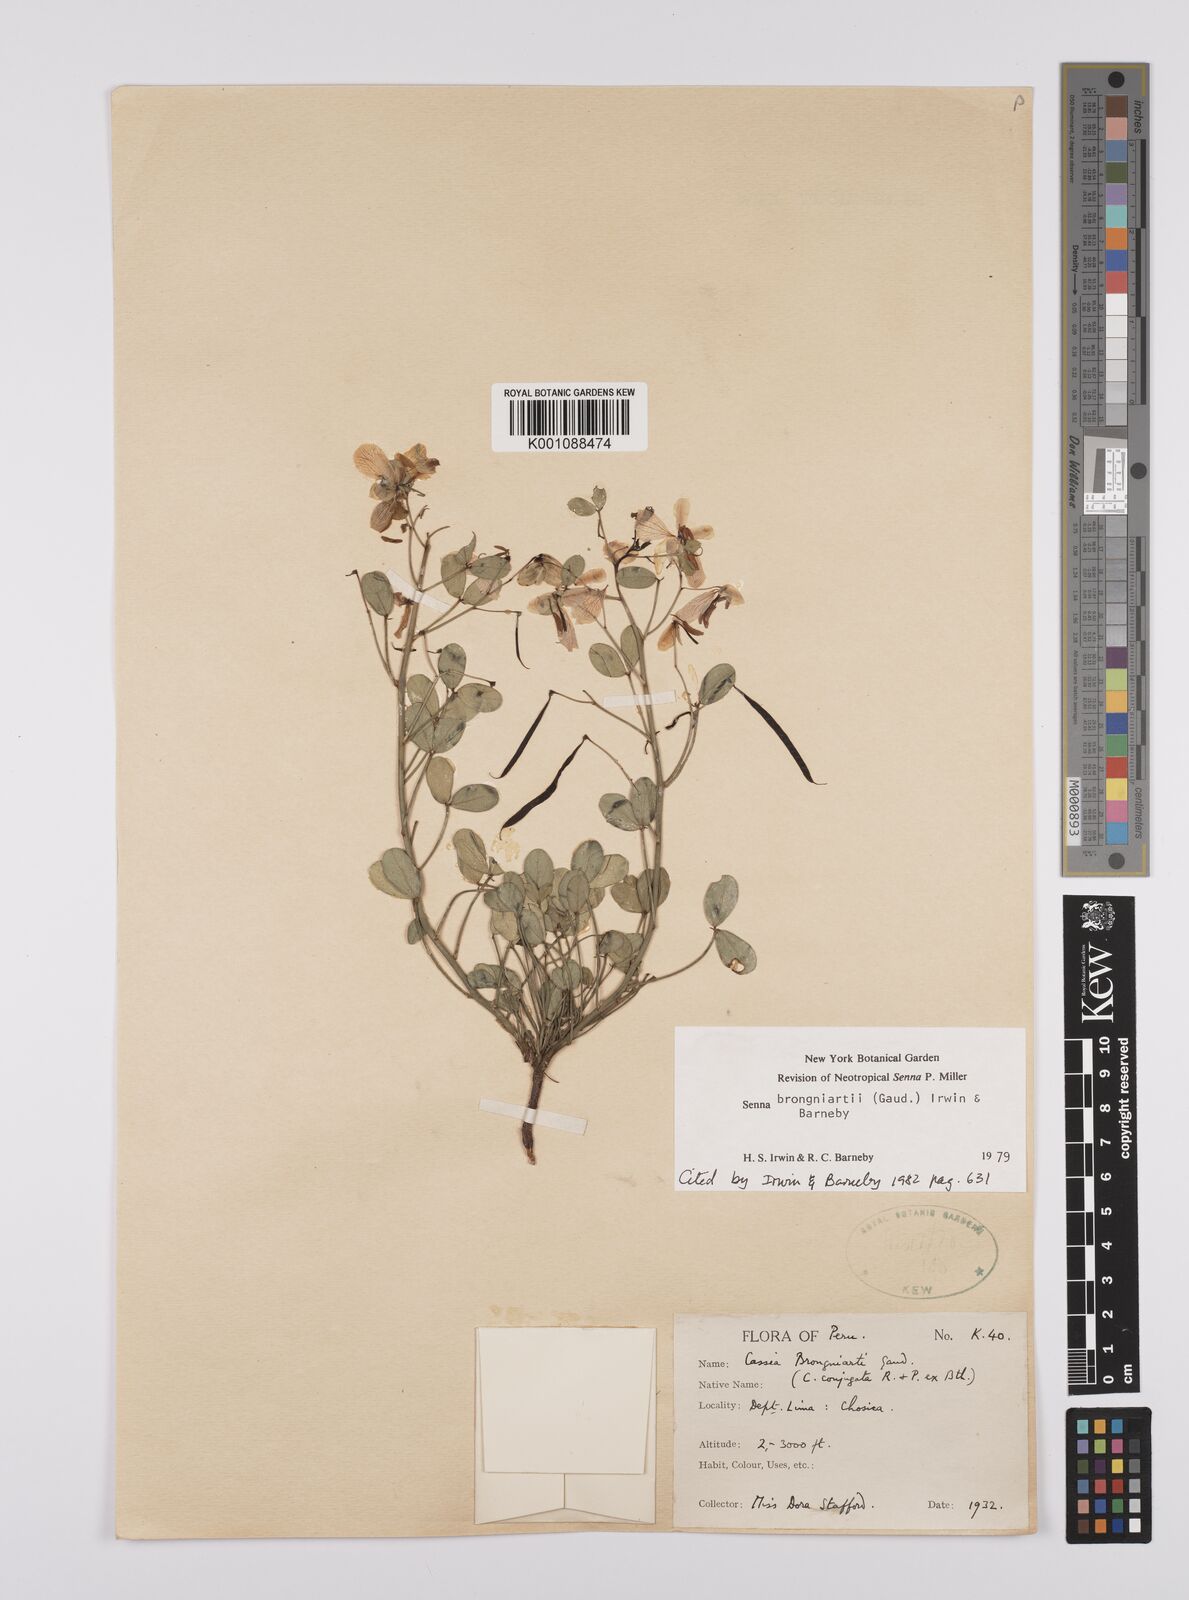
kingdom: Plantae
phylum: Tracheophyta
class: Magnoliopsida
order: Fabales
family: Fabaceae
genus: Senna
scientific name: Senna brongniartii
